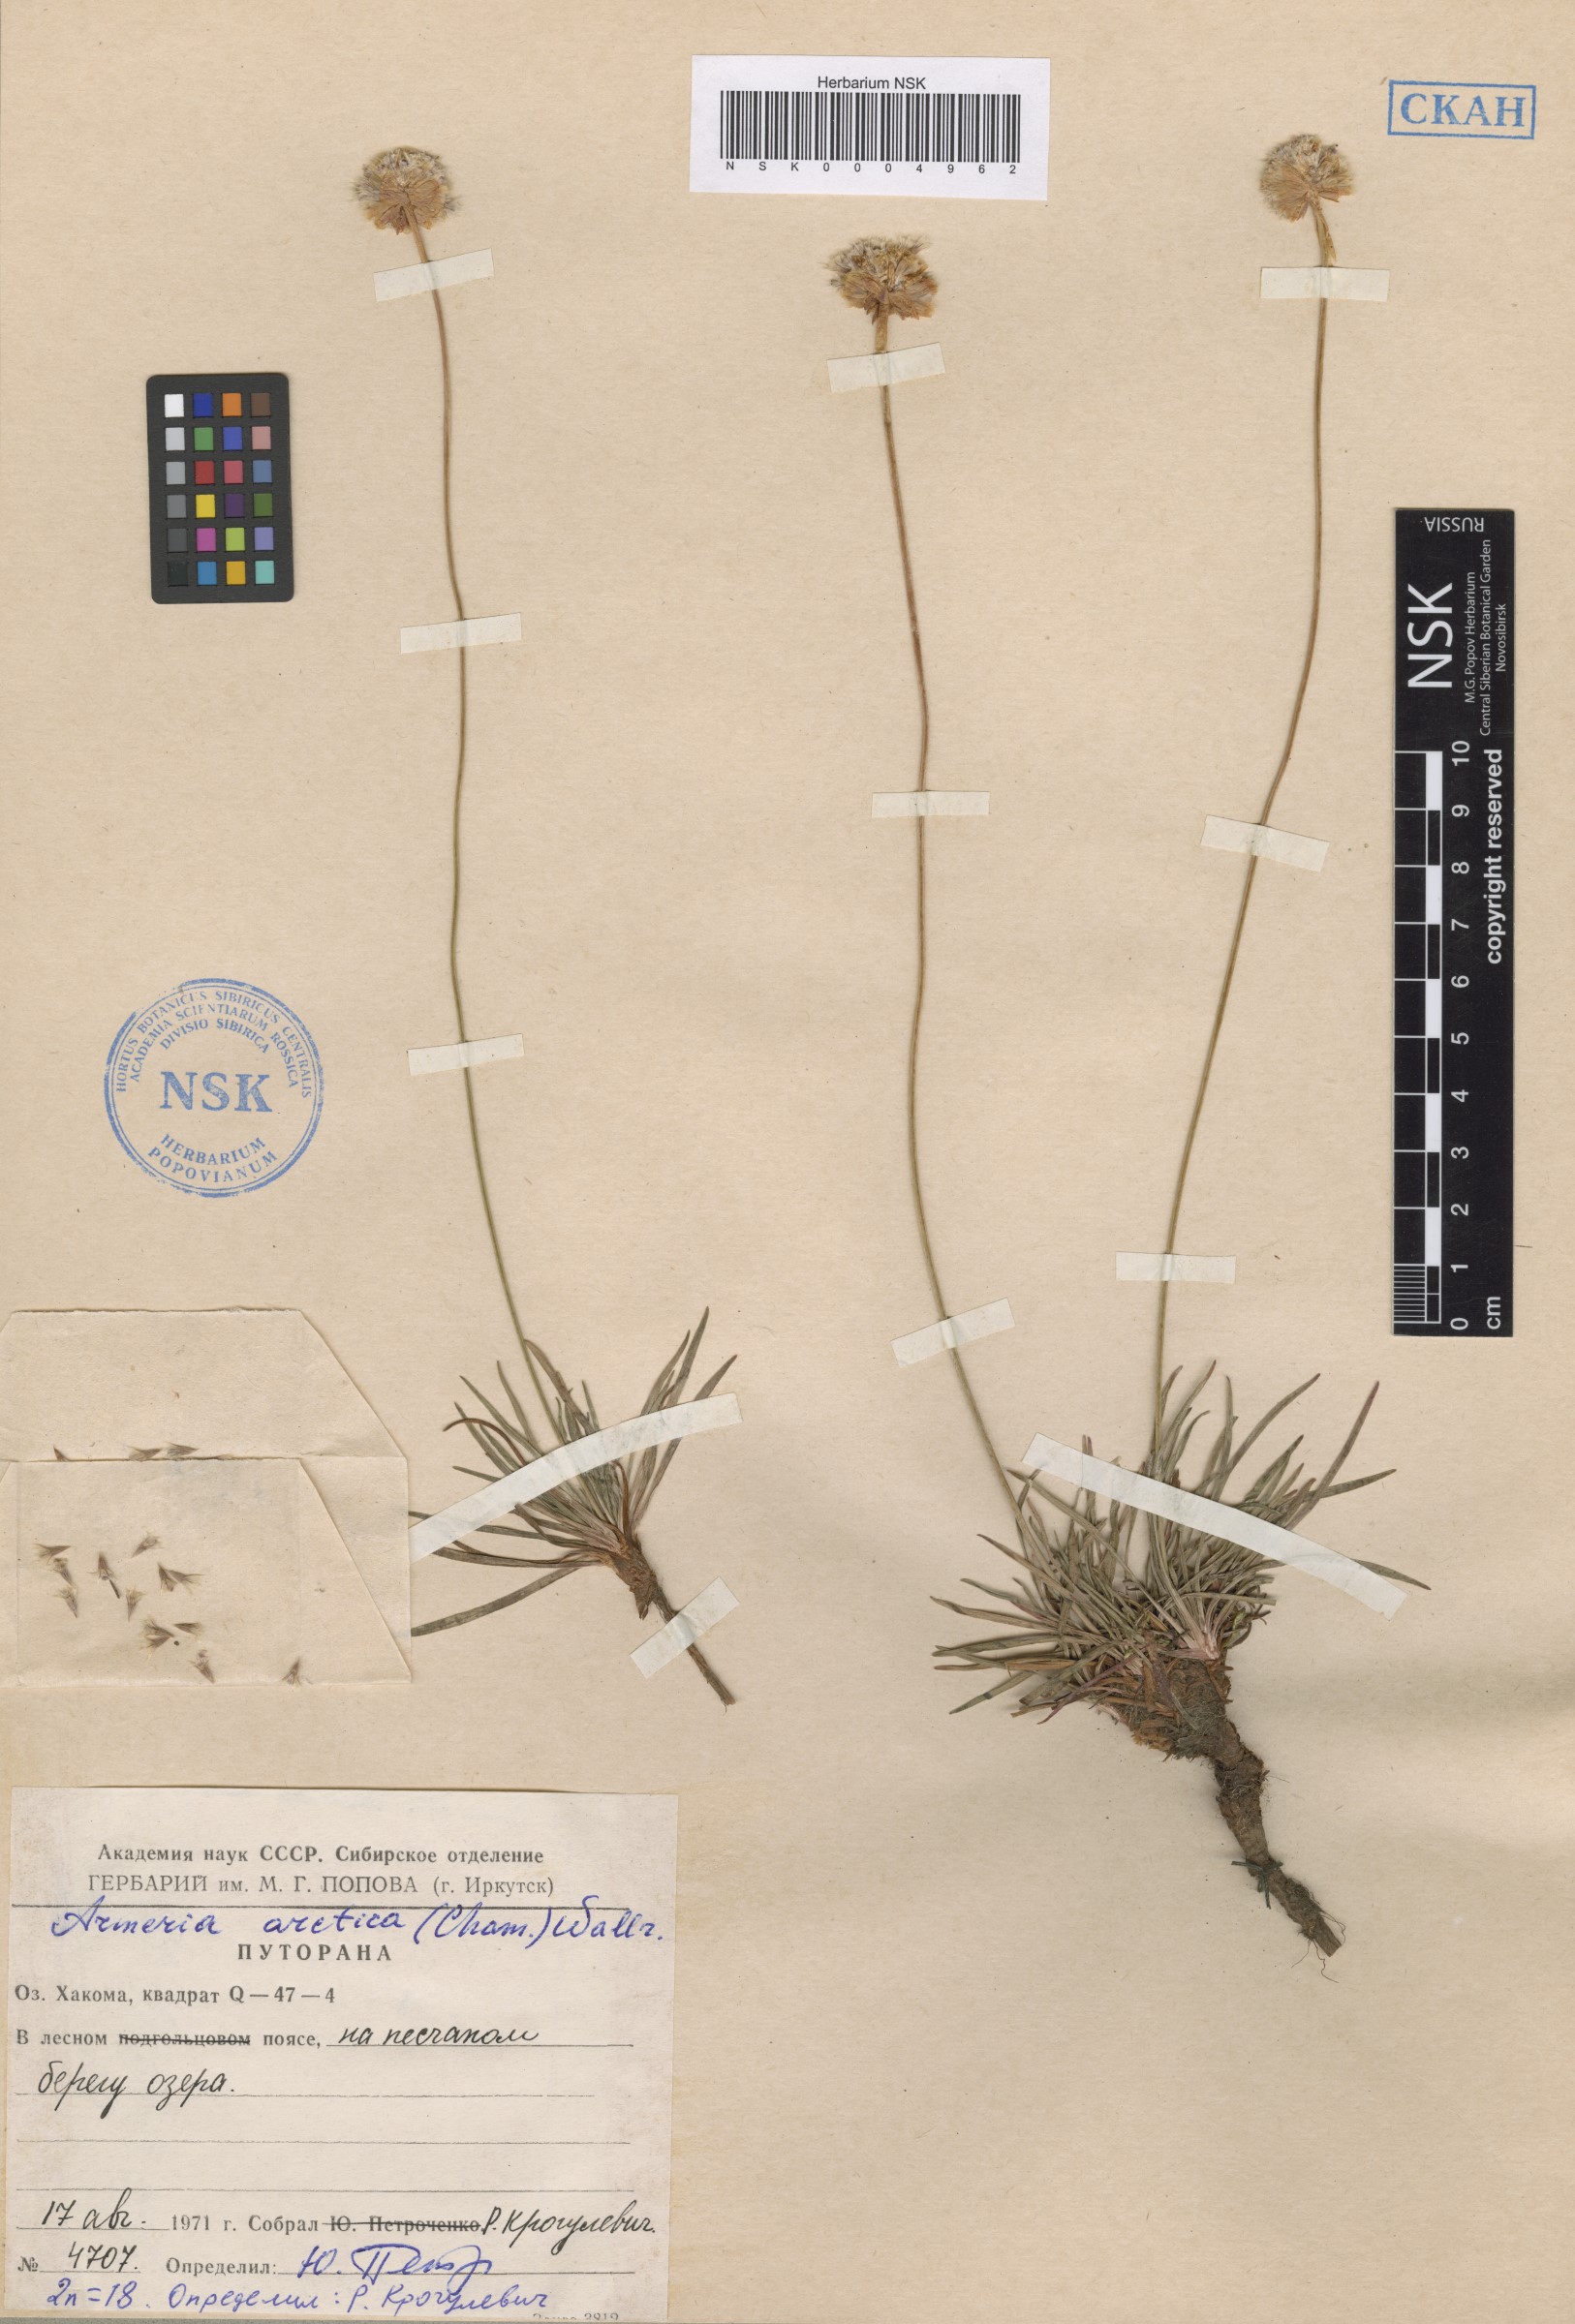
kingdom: Plantae
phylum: Tracheophyta
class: Magnoliopsida
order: Caryophyllales
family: Plumbaginaceae
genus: Armeria
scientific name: Armeria maritima
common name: Thrift
